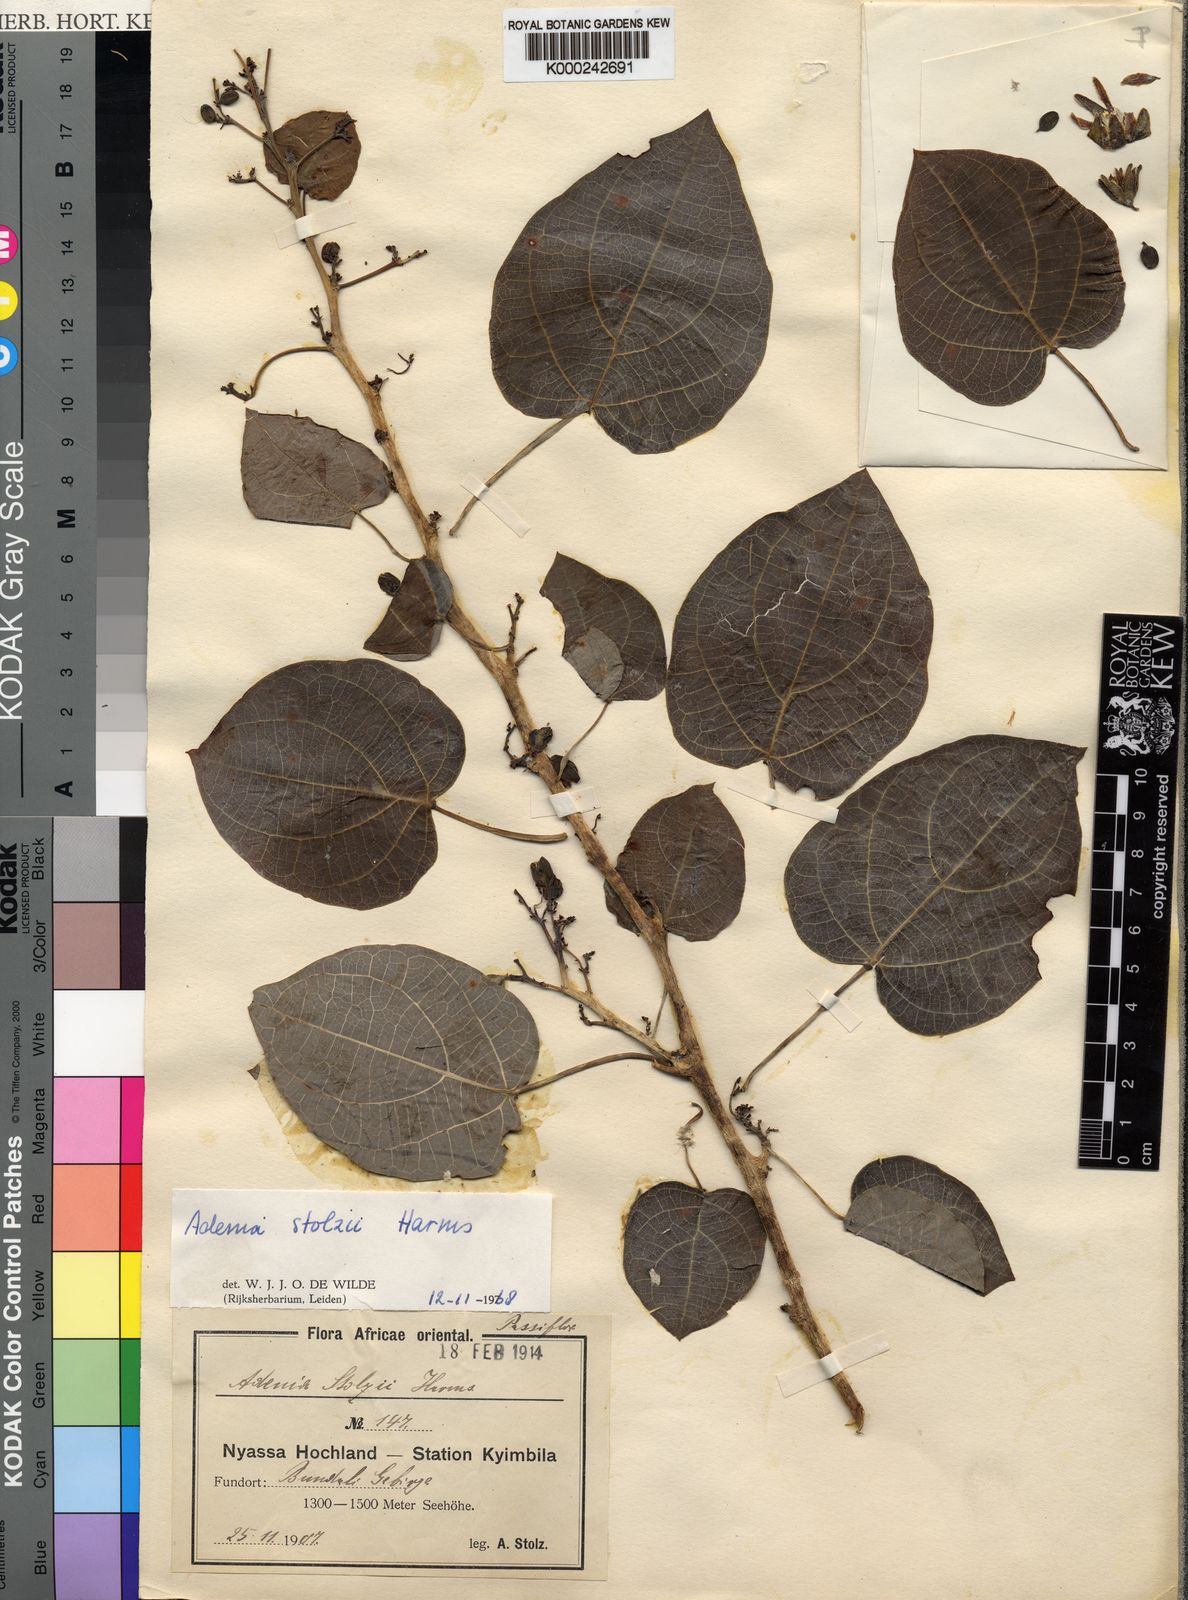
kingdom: Plantae
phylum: Tracheophyta
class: Magnoliopsida
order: Malpighiales
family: Passifloraceae
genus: Adenia
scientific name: Adenia stolzii
